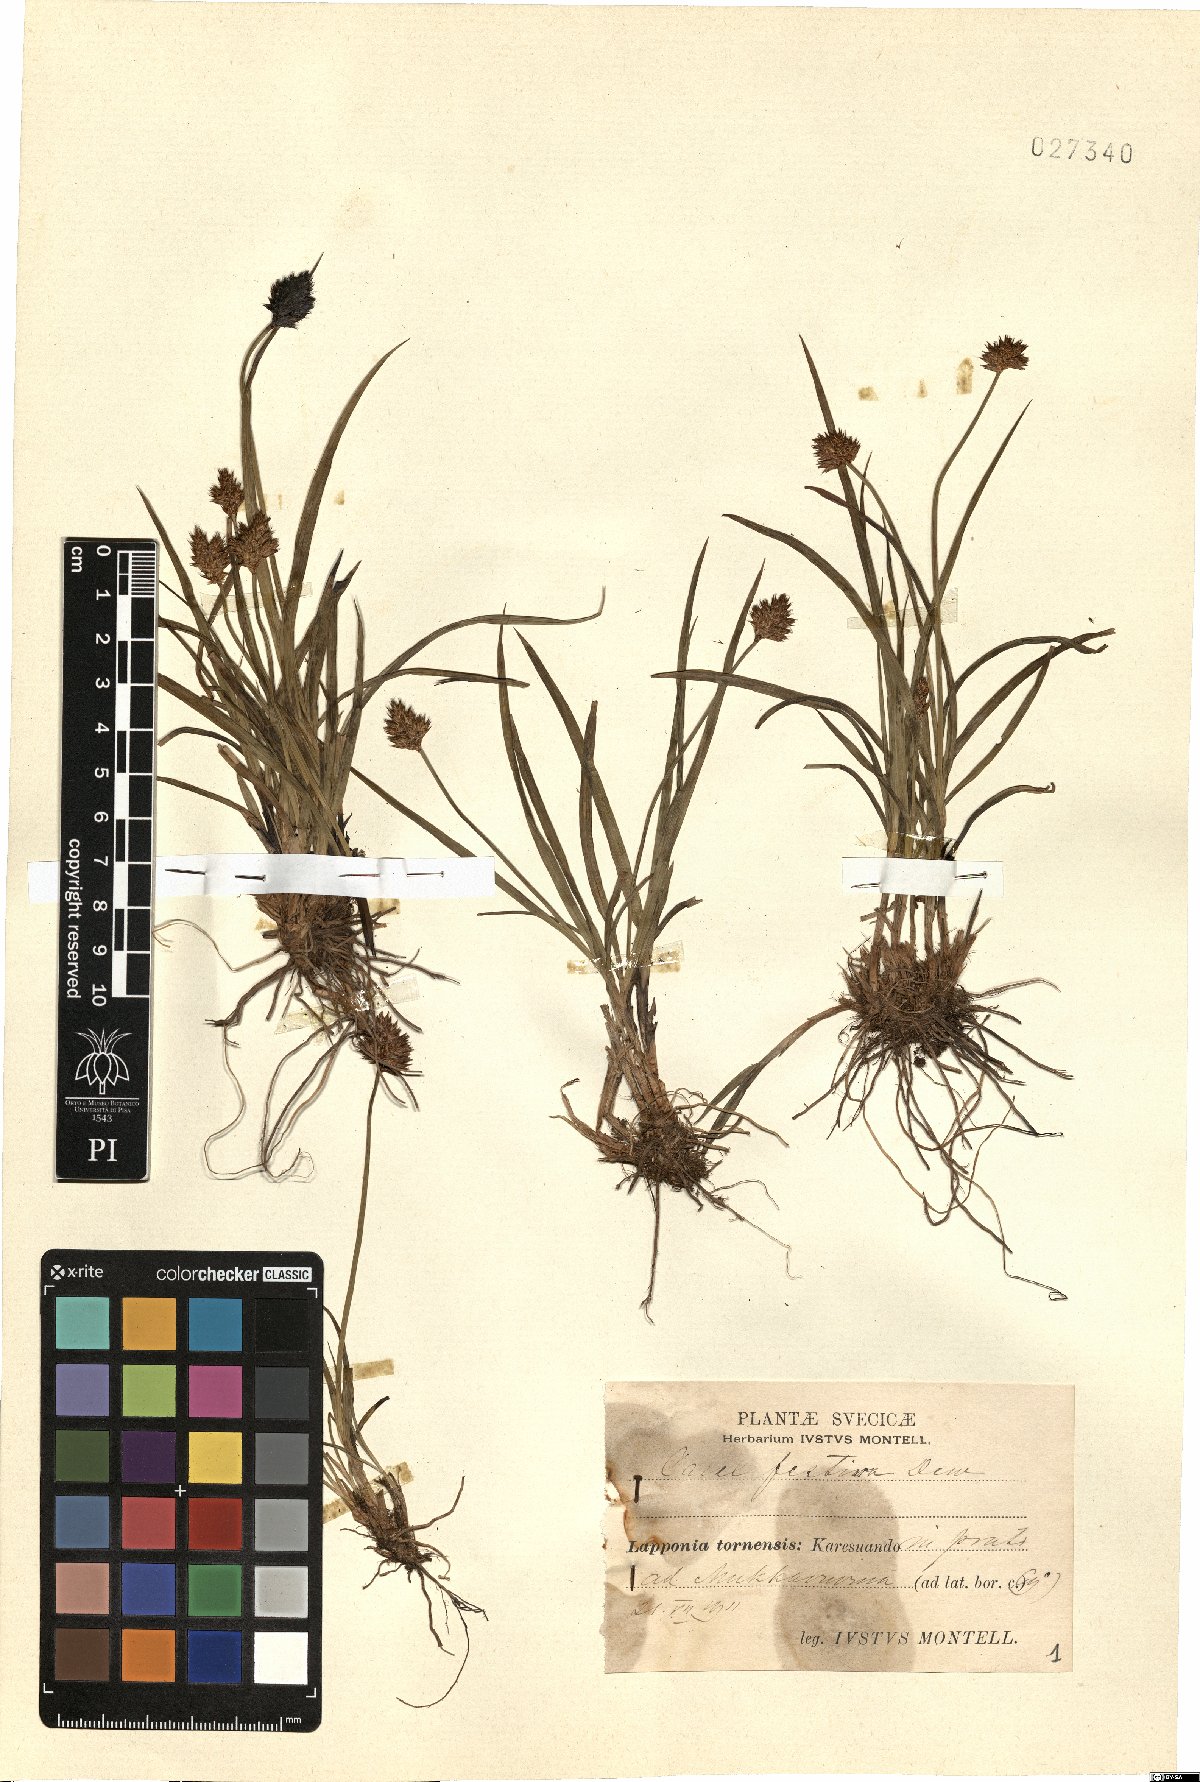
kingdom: Plantae
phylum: Tracheophyta
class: Liliopsida
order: Poales
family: Cyperaceae
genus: Carex
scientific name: Carex macloviana
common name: Falkland island sedge
